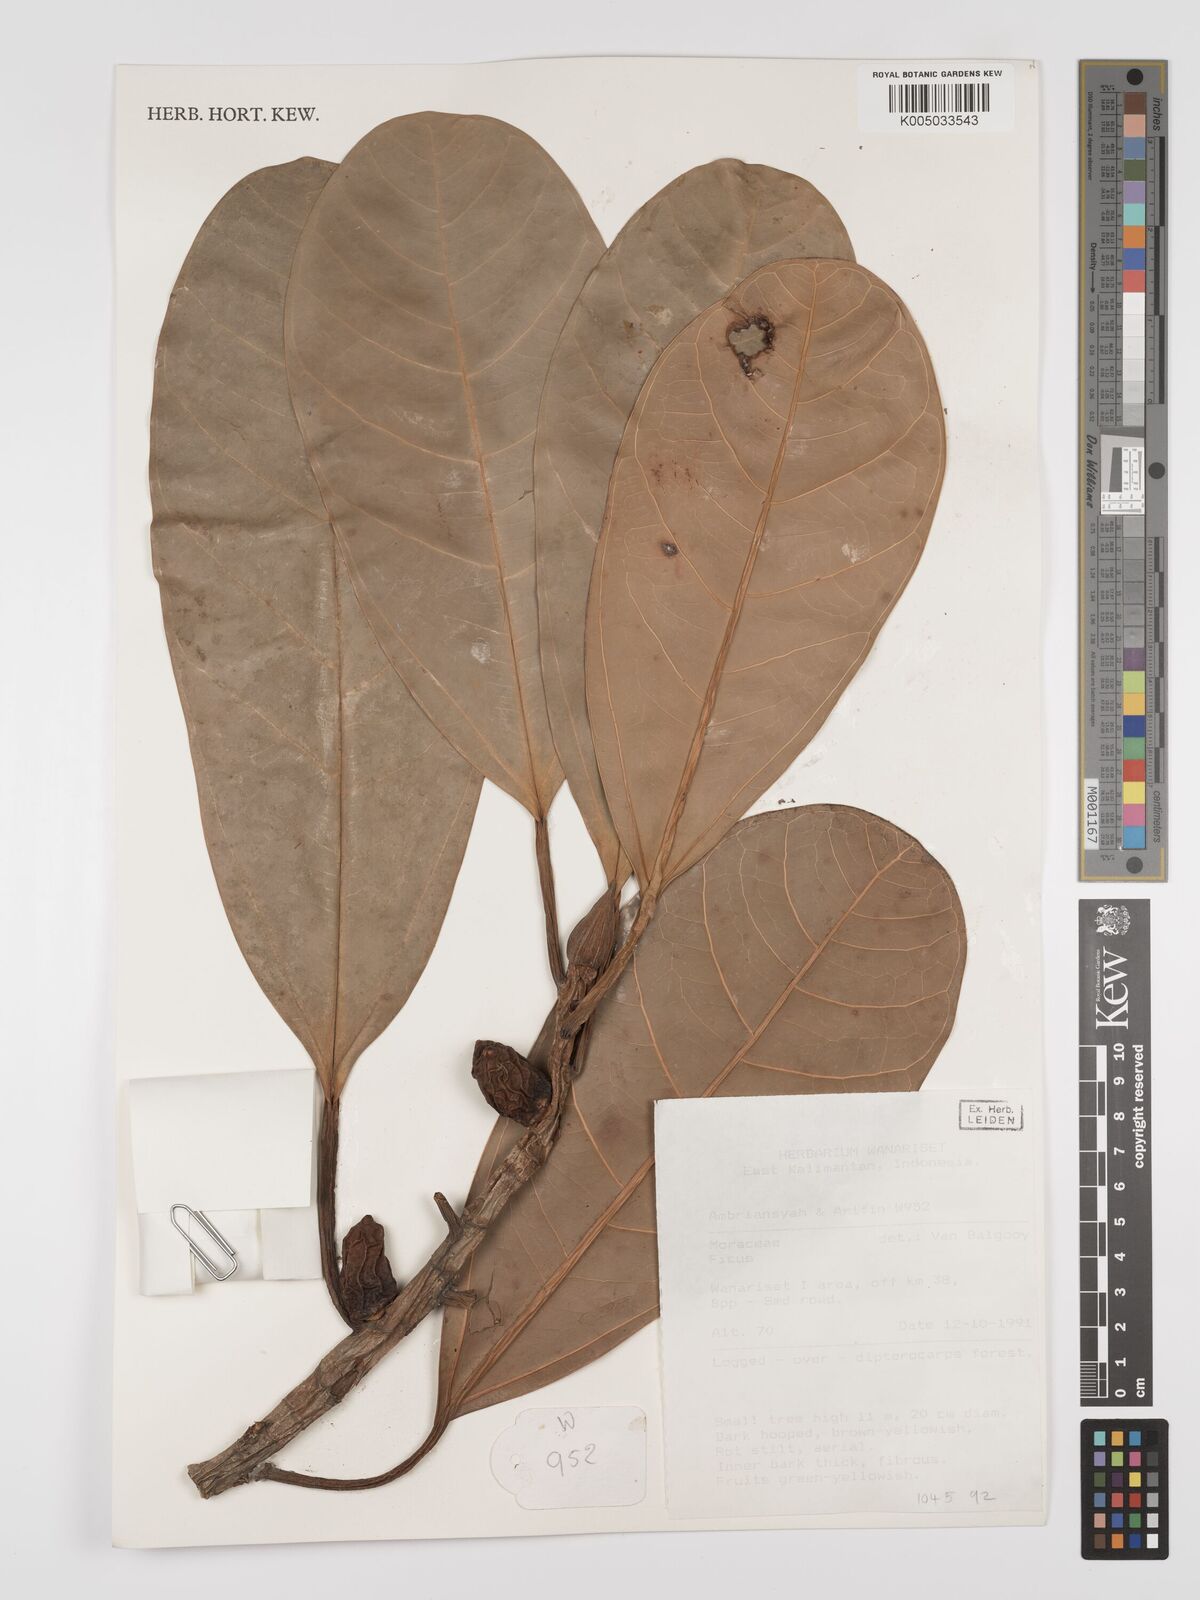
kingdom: Plantae
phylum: Tracheophyta
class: Magnoliopsida
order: Rosales
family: Moraceae
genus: Ficus
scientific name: Ficus
